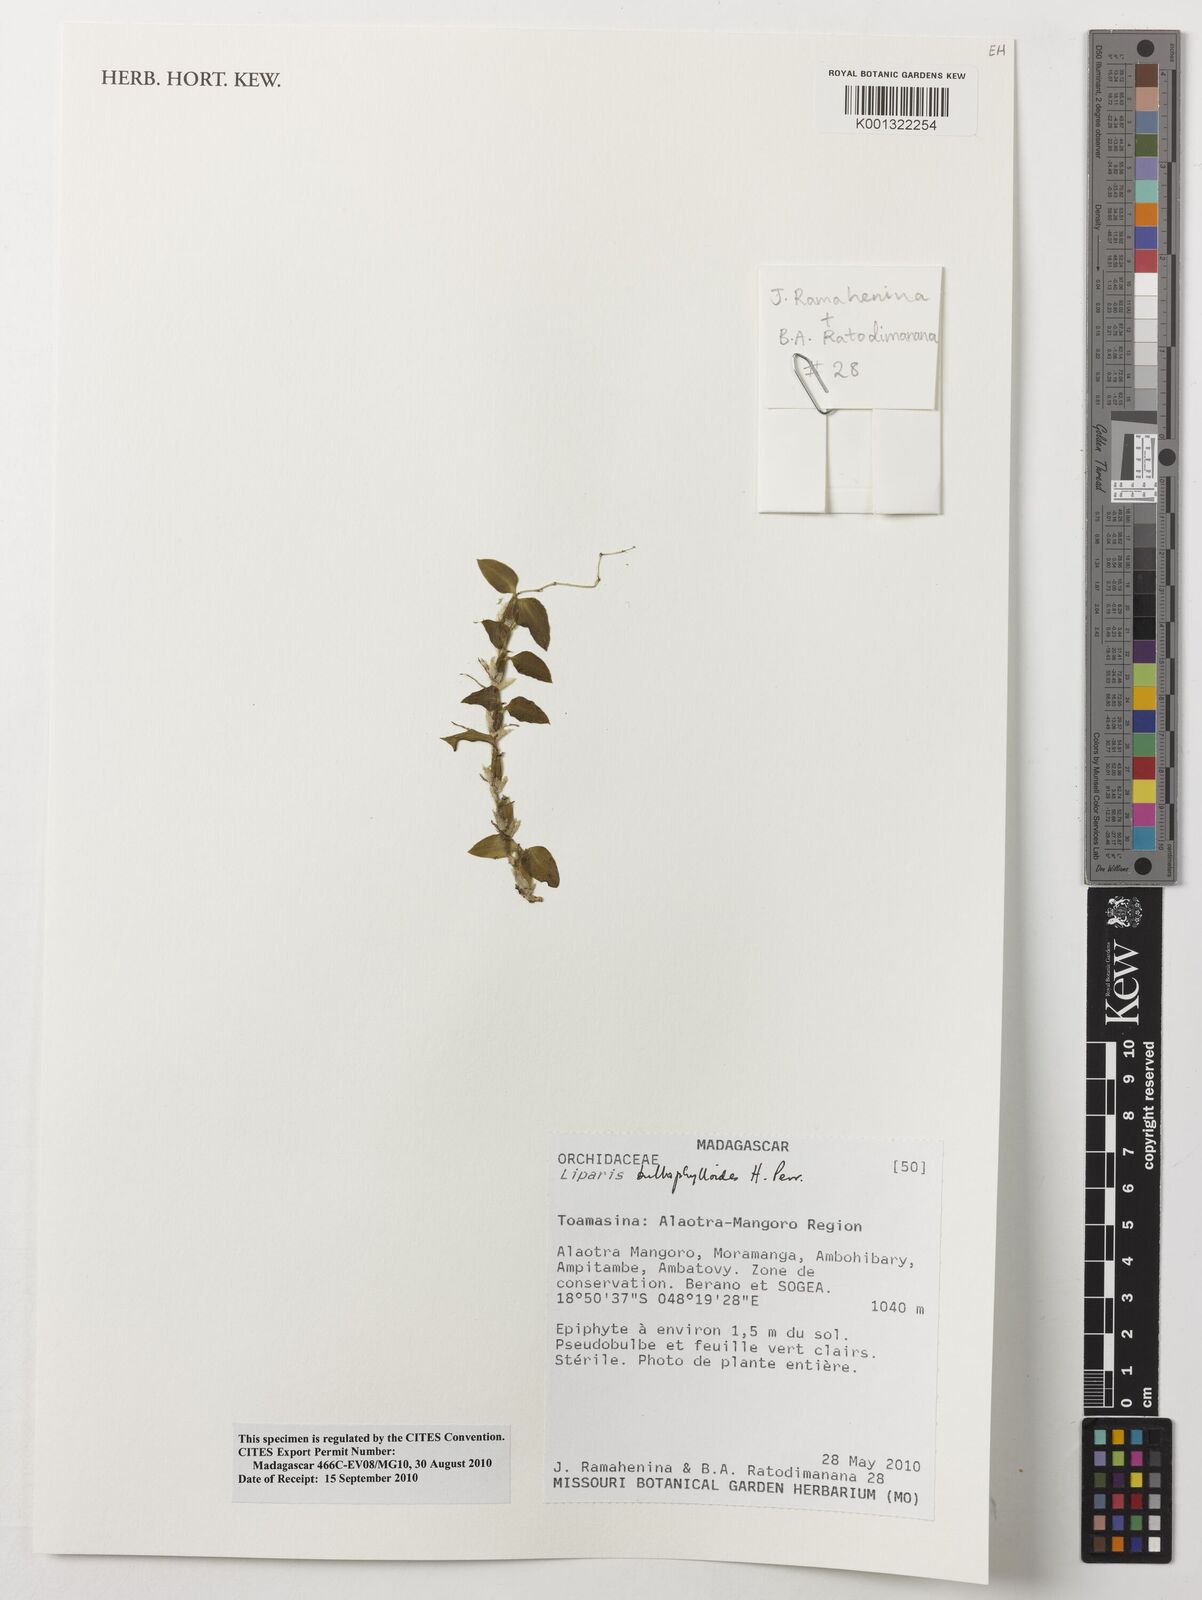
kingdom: Plantae
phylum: Tracheophyta
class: Liliopsida
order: Asparagales
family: Orchidaceae
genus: Liparis
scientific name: Liparis bulbophylloides
